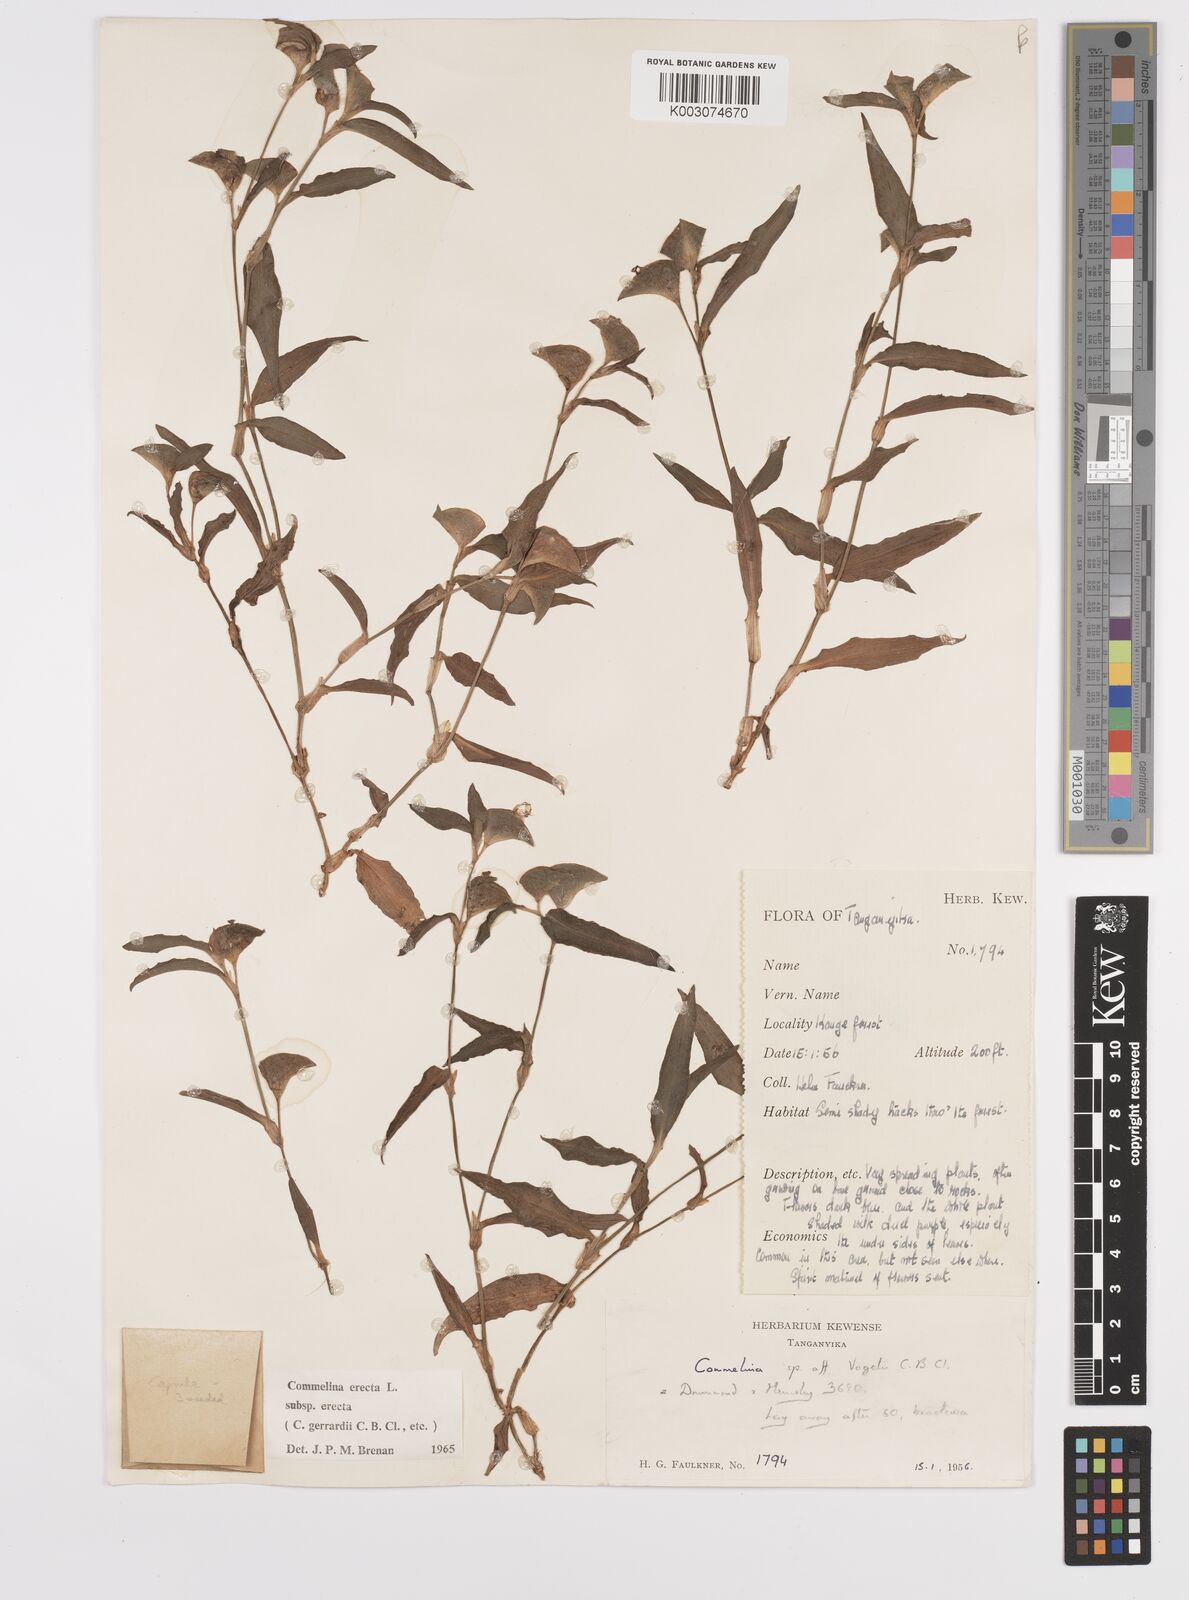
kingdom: Plantae
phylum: Tracheophyta
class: Liliopsida
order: Commelinales
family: Commelinaceae
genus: Commelina
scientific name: Commelina erecta
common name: Blousel blommetjie
